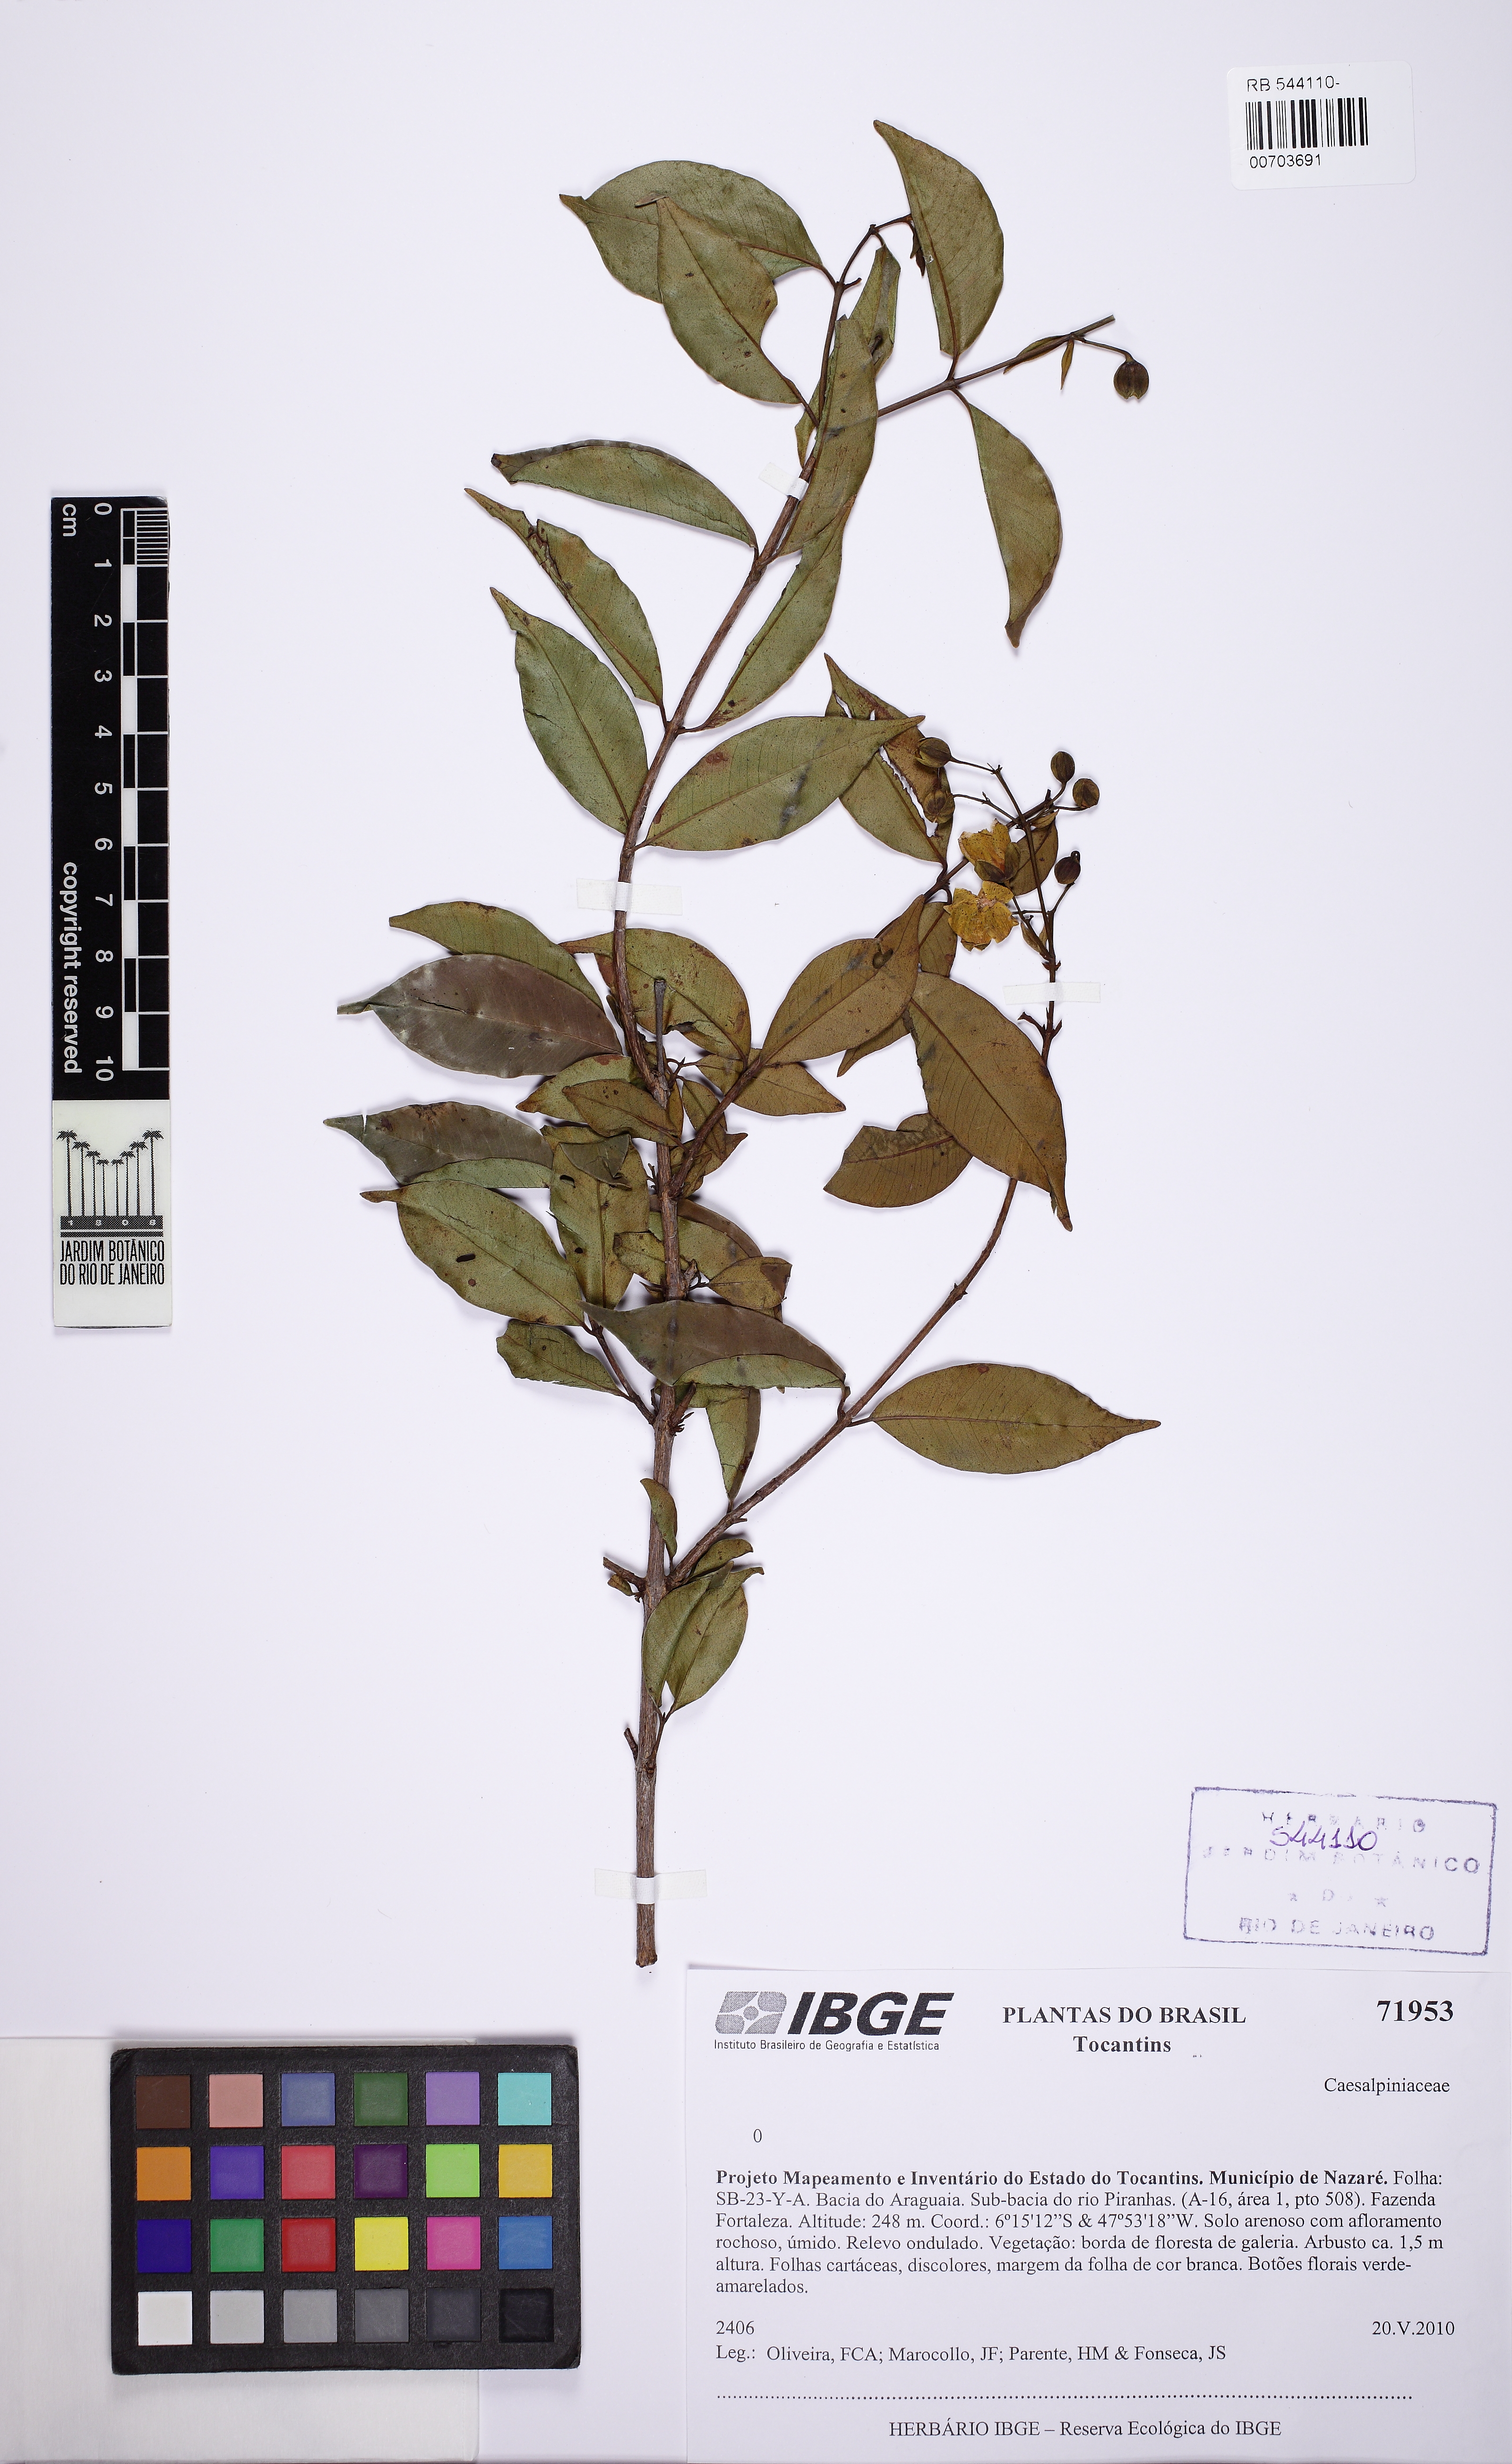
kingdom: Plantae
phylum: Tracheophyta
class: Magnoliopsida
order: Malpighiales
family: Hypericaceae
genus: Vismia
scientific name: Vismia tenuinervia
